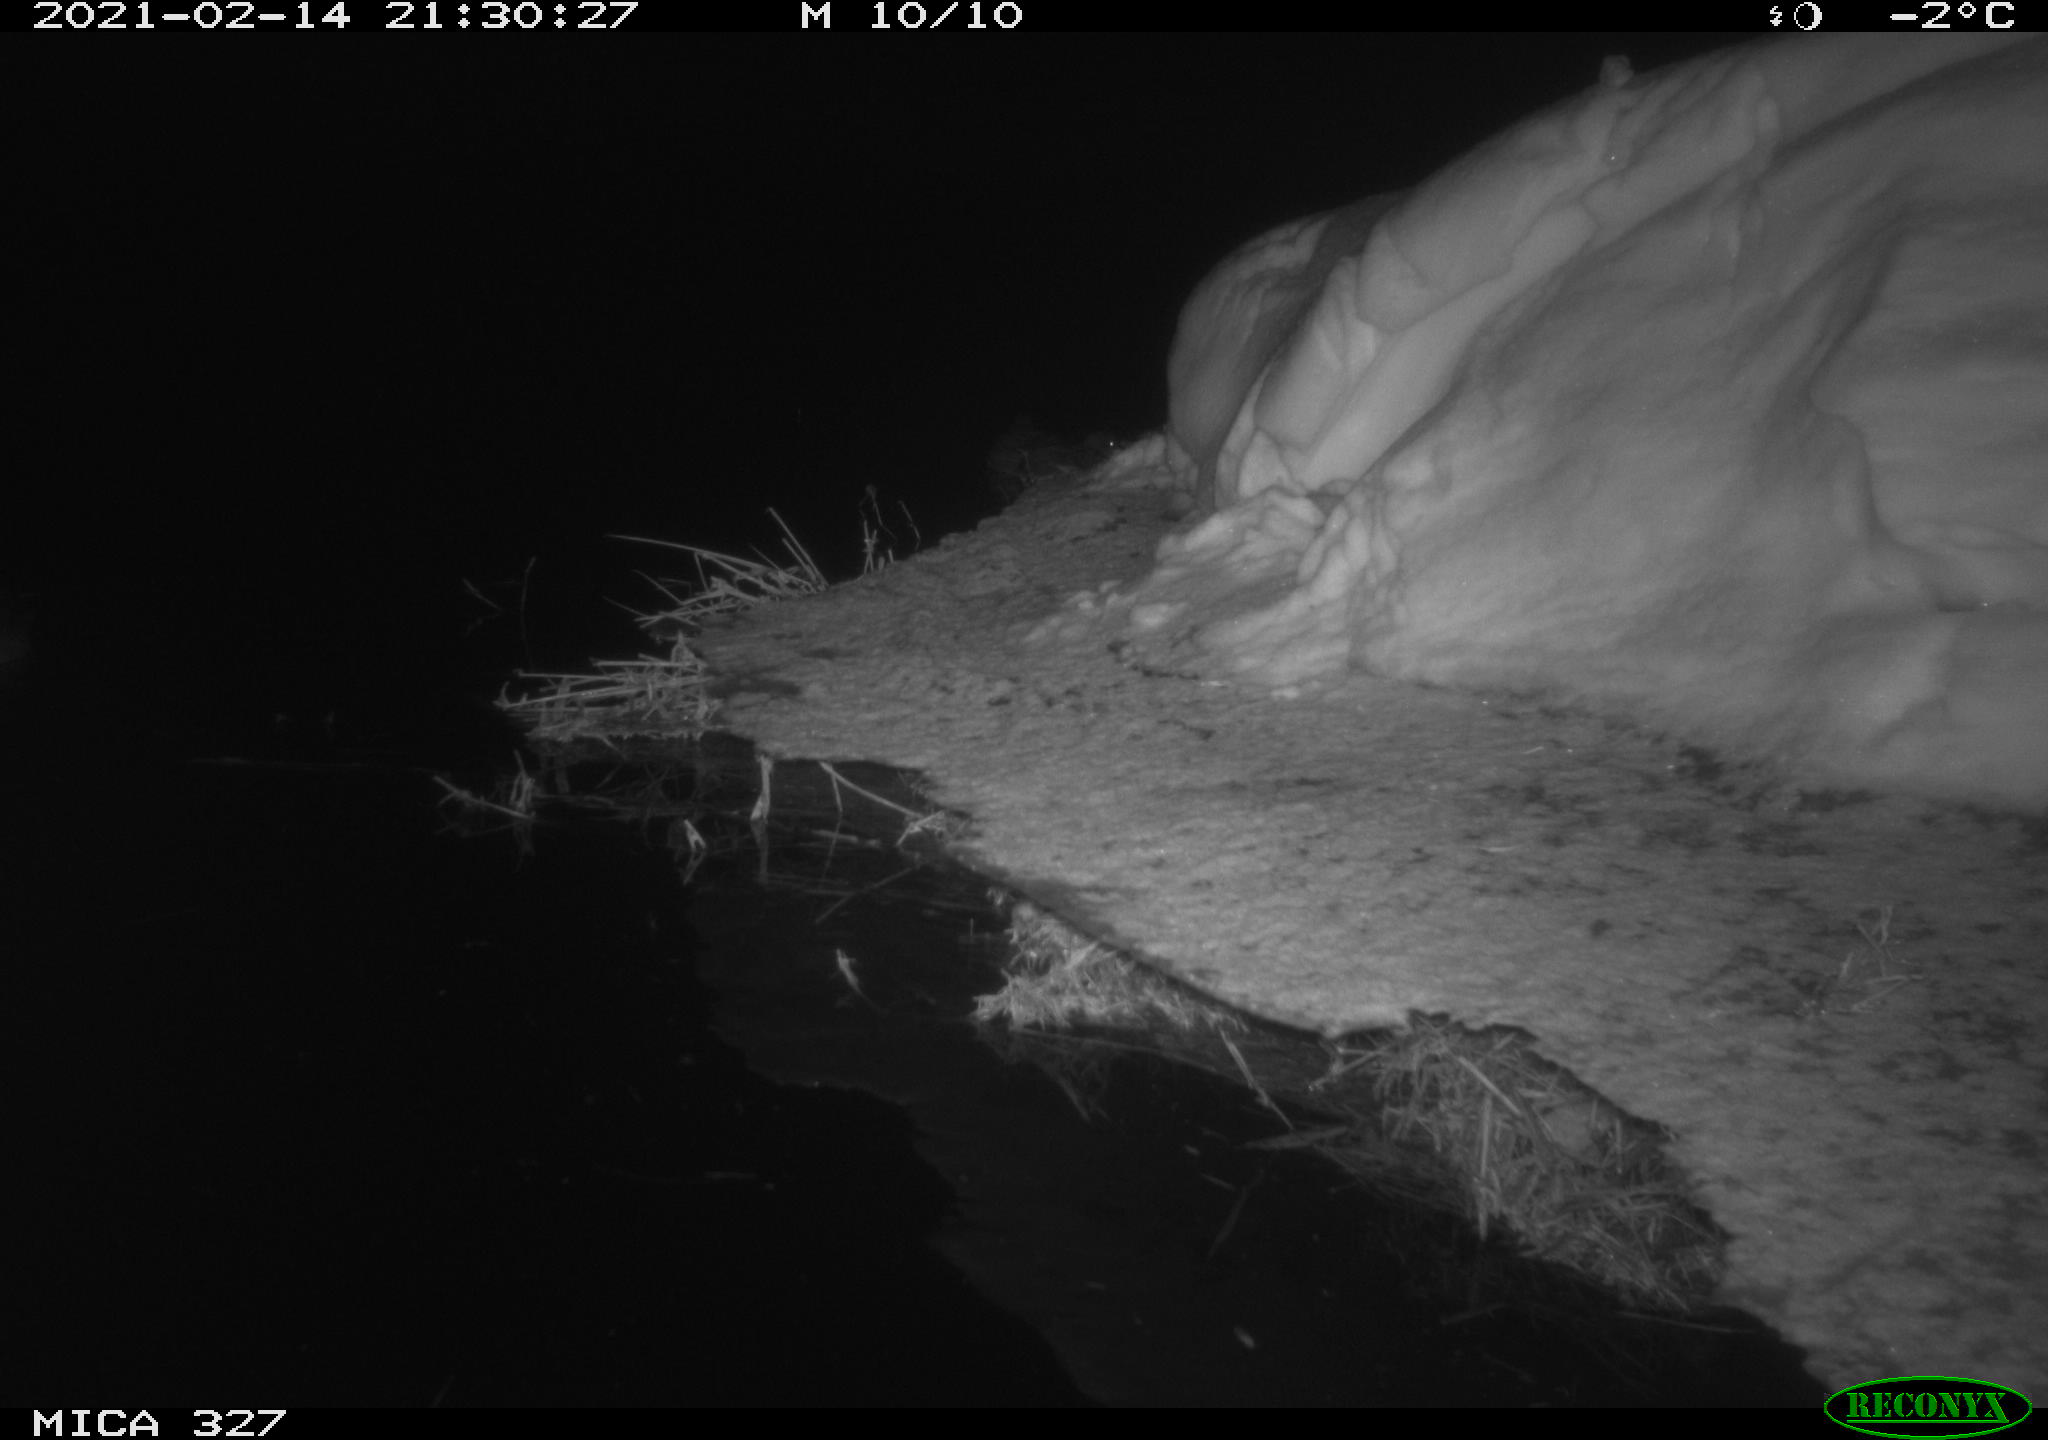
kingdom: Animalia
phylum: Chordata
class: Aves
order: Anseriformes
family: Anatidae
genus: Anas
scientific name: Anas
